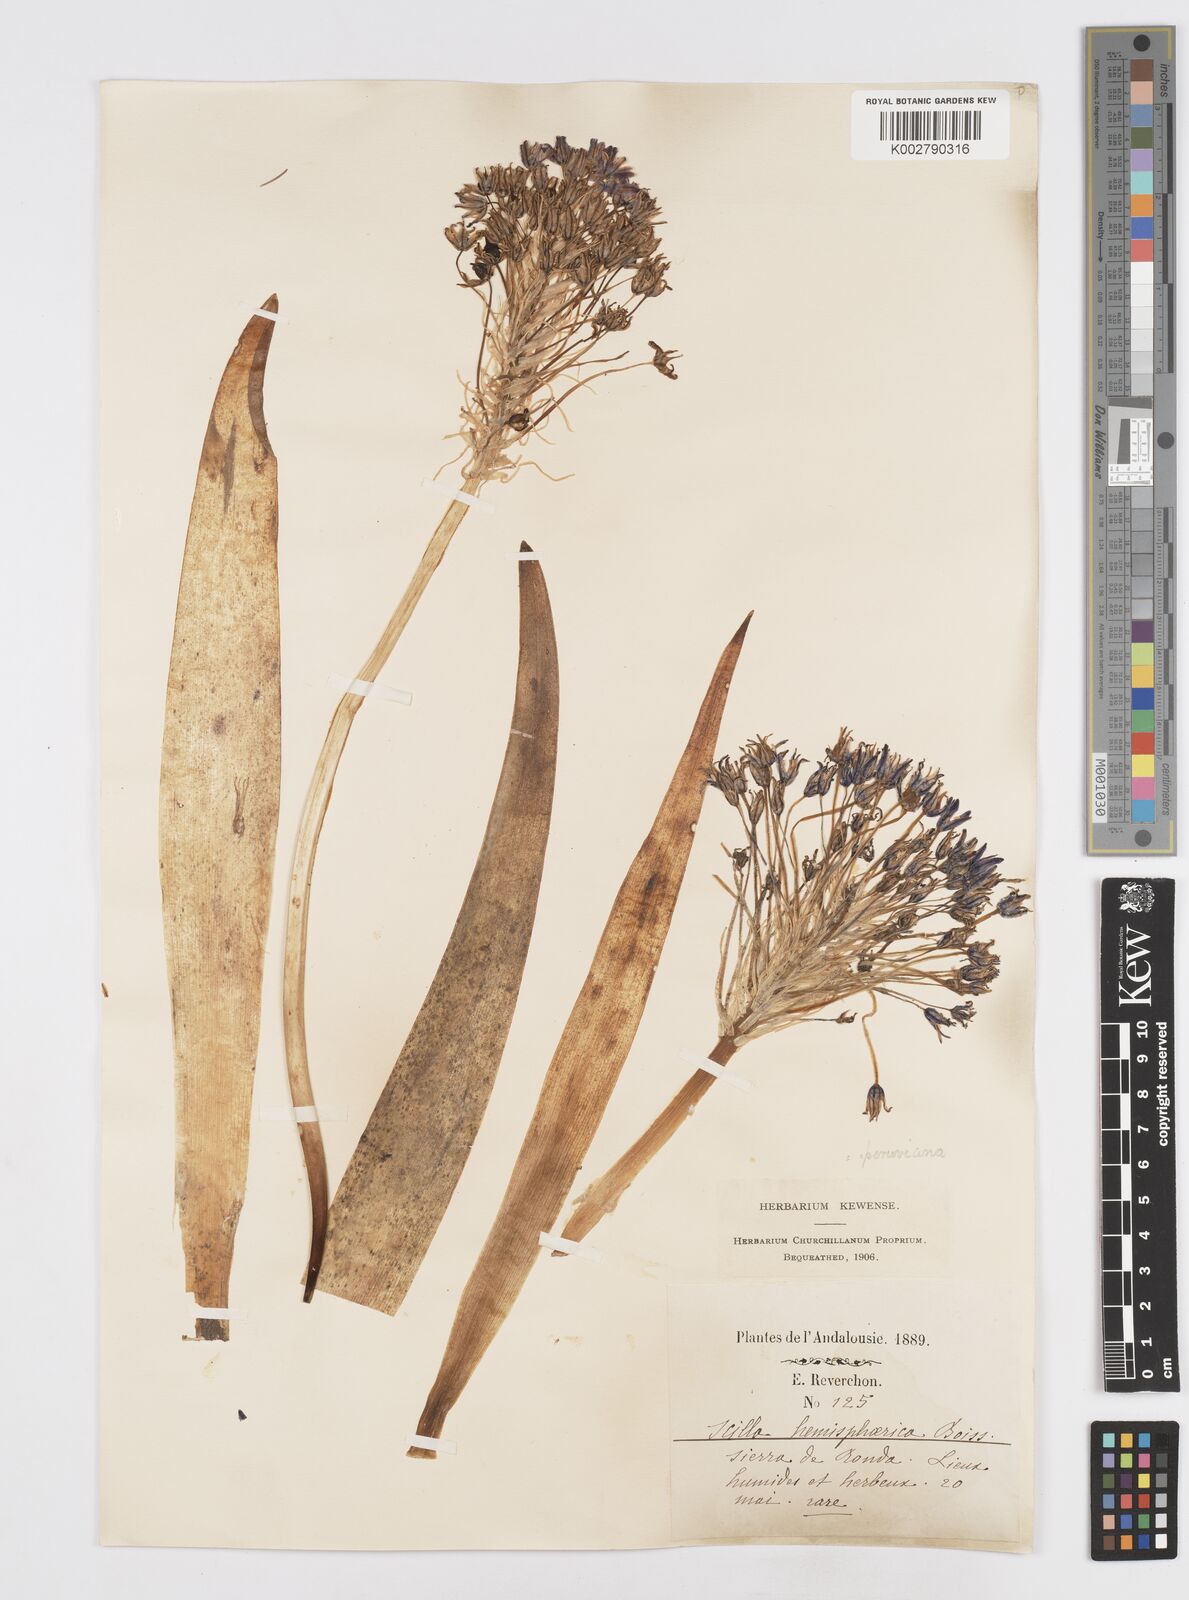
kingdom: Plantae
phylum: Tracheophyta
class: Liliopsida
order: Asparagales
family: Asparagaceae
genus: Scilla
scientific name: Scilla peruviana
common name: Portuguese squill
